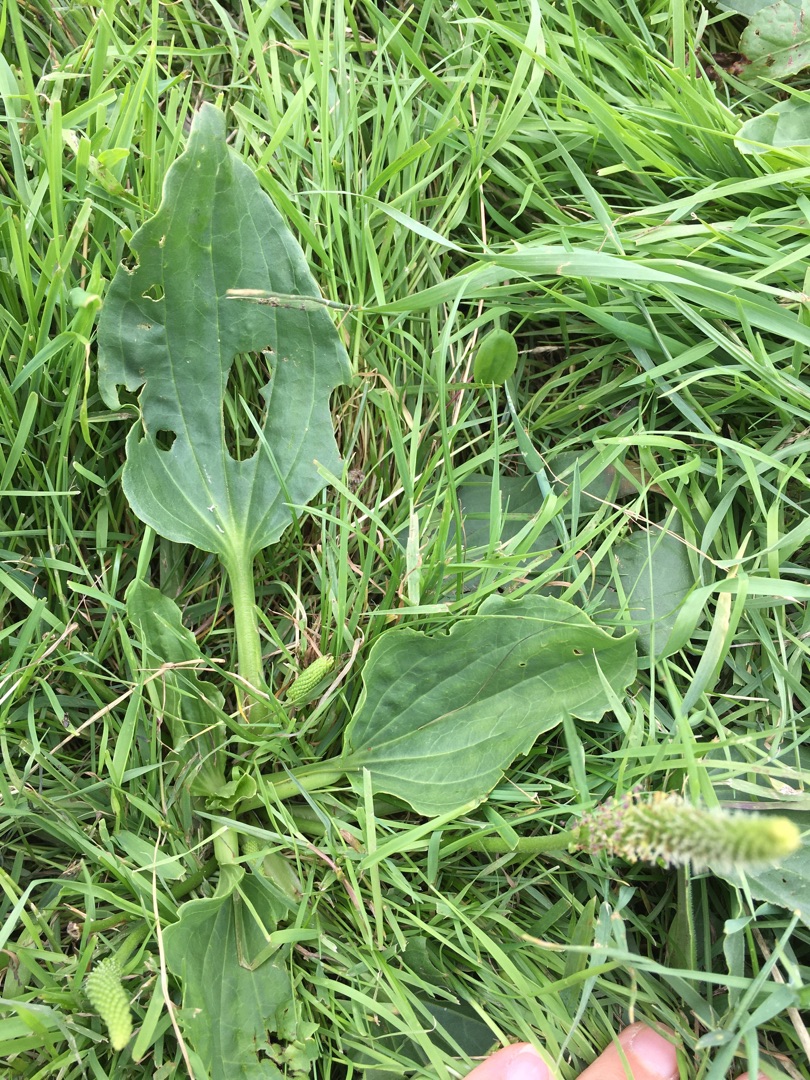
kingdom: Plantae
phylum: Tracheophyta
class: Magnoliopsida
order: Lamiales
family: Plantaginaceae
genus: Plantago
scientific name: Plantago major
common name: Glat vejbred
